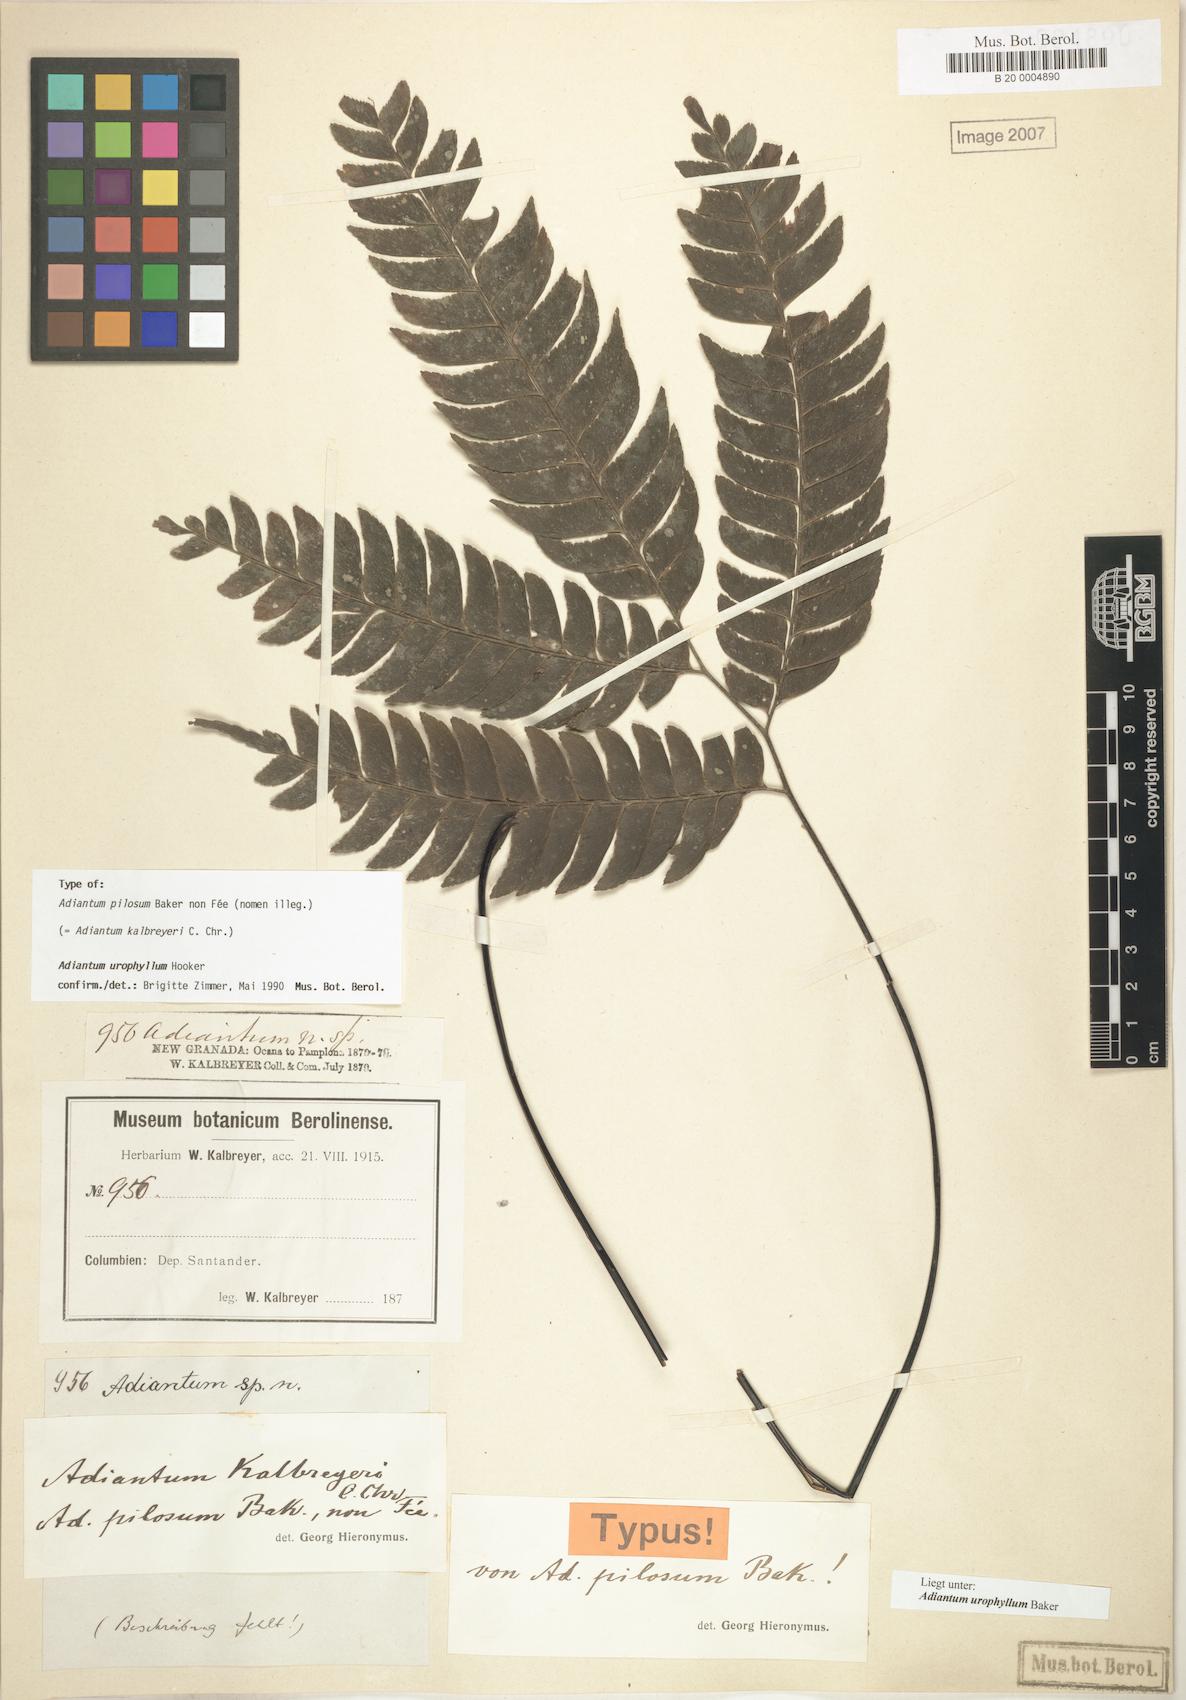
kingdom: Plantae
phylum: Tracheophyta
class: Polypodiopsida
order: Polypodiales
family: Pteridaceae
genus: Adiantum
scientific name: Adiantum urophyllum
